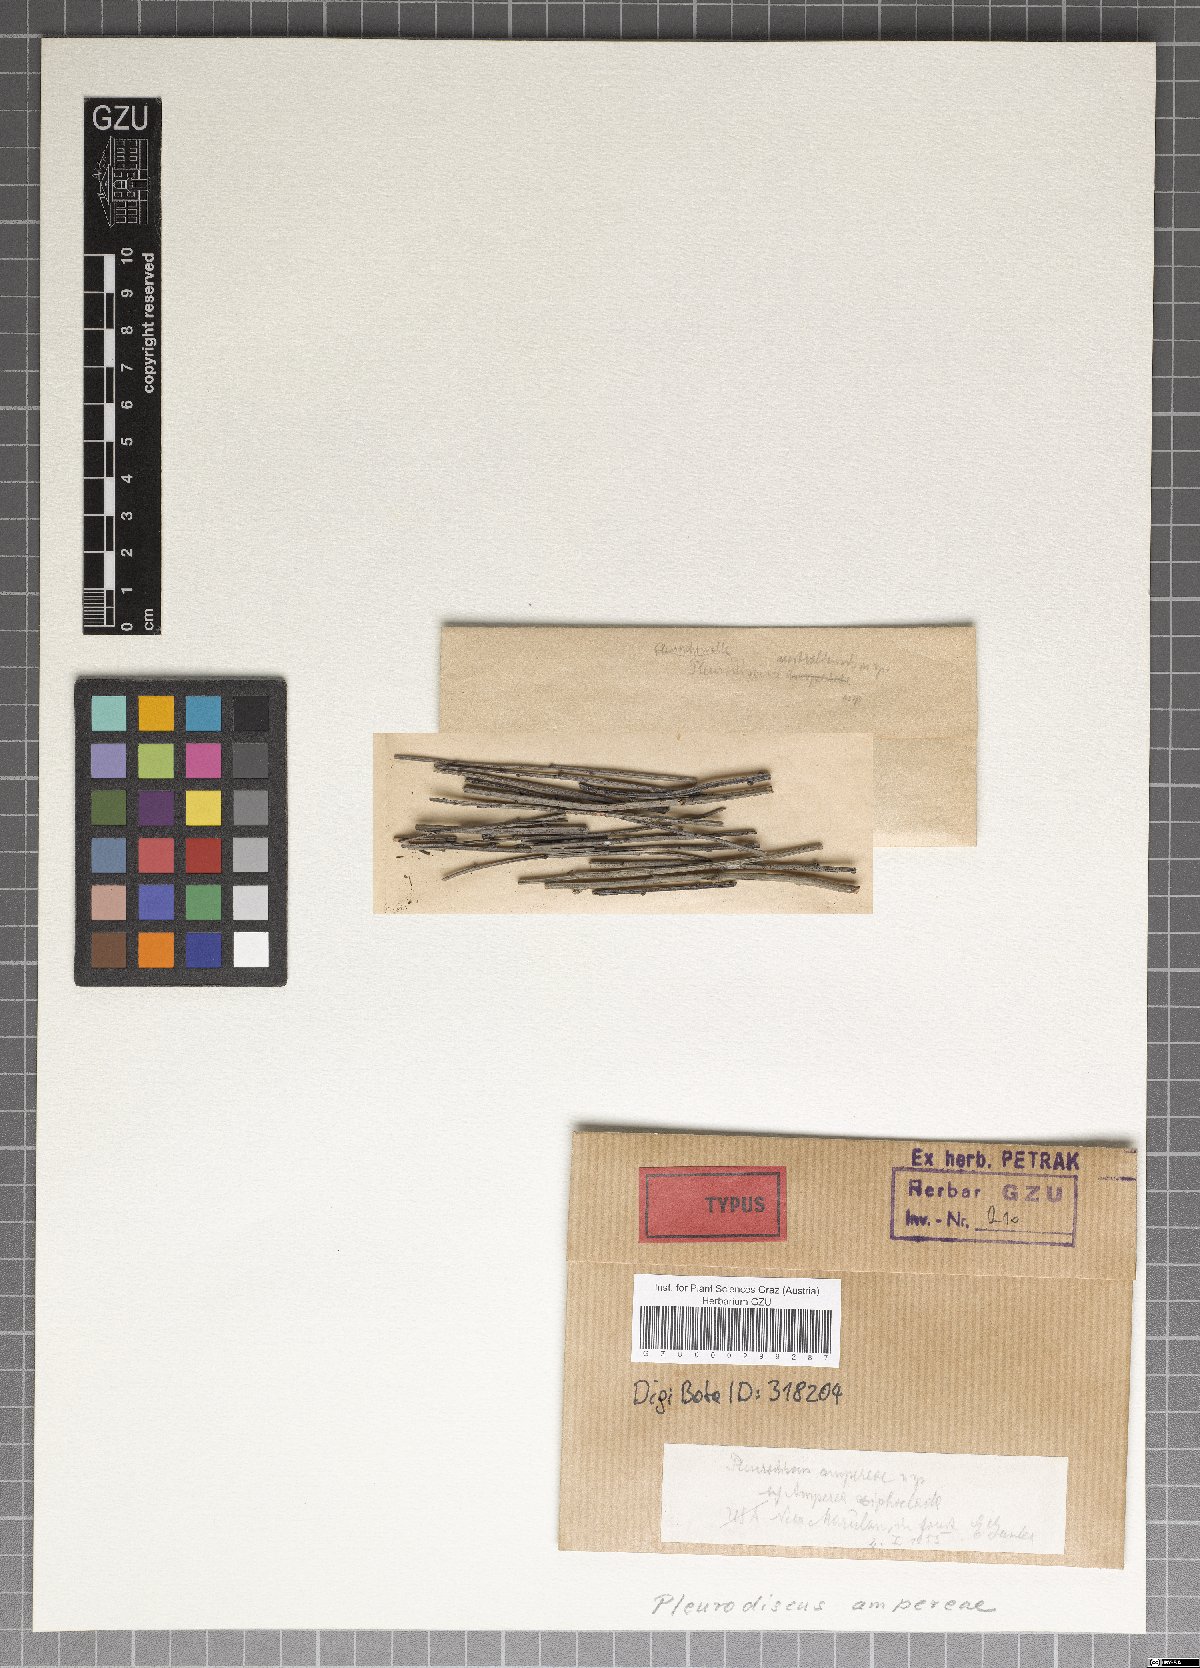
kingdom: Fungi
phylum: Ascomycota
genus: Pleurodiscus
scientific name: Pleurodiscus ampereae
